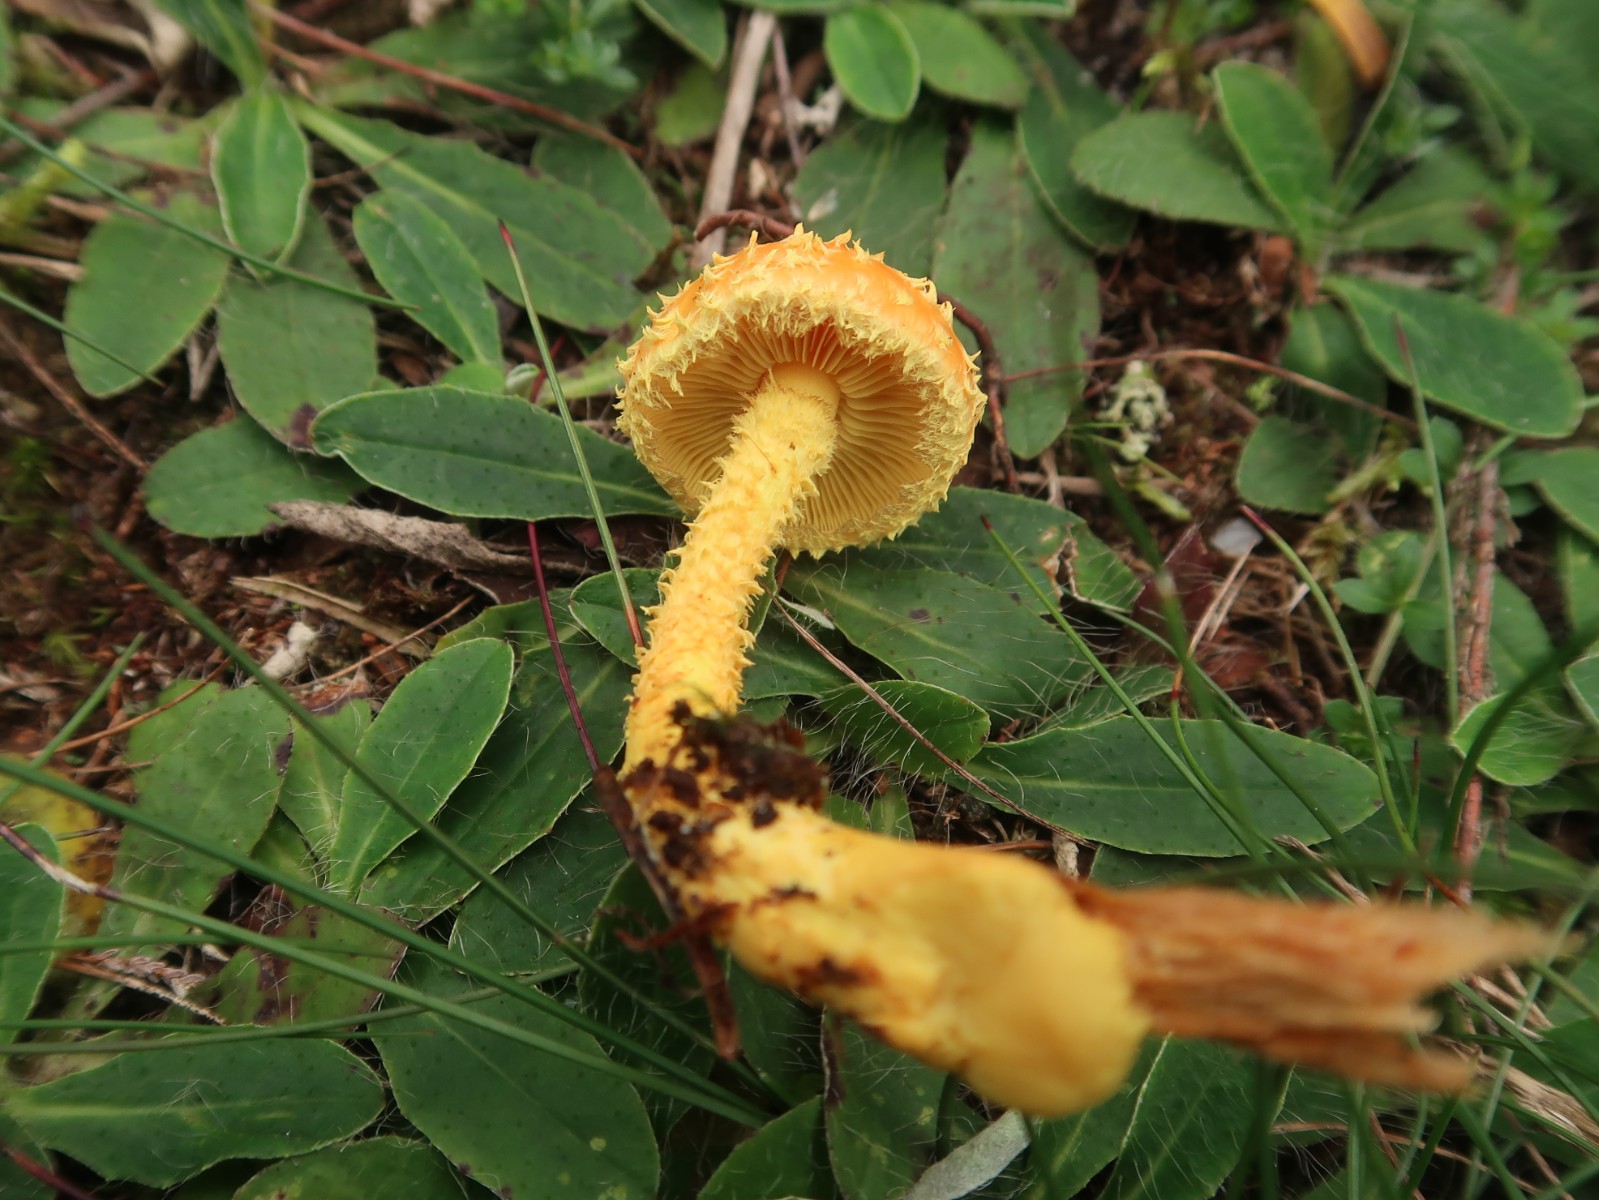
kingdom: Fungi
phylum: Basidiomycota
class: Agaricomycetes
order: Agaricales
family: Strophariaceae
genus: Pholiota
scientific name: Pholiota flammans
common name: flamme-skælhat
